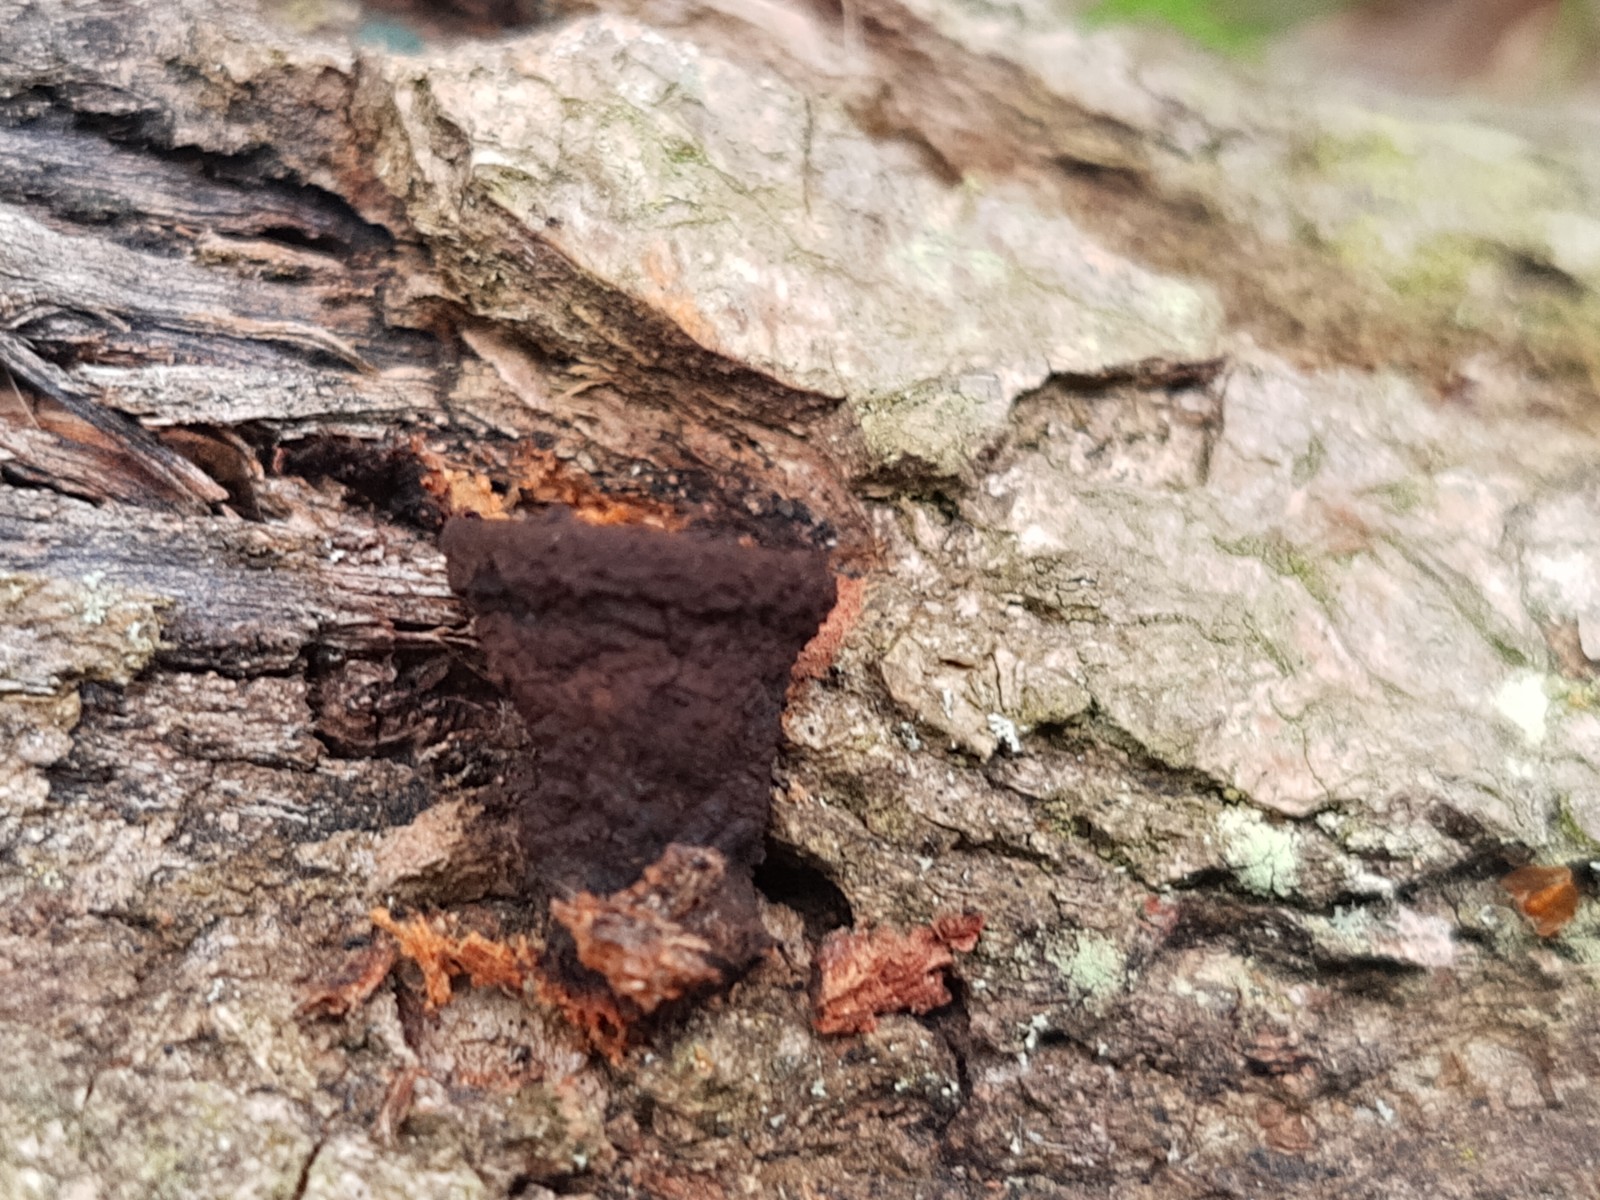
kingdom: Fungi
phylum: Ascomycota
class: Leotiomycetes
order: Phacidiales
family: Phacidiaceae
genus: Bulgaria
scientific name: Bulgaria inquinans
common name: afsmittende topsvamp
